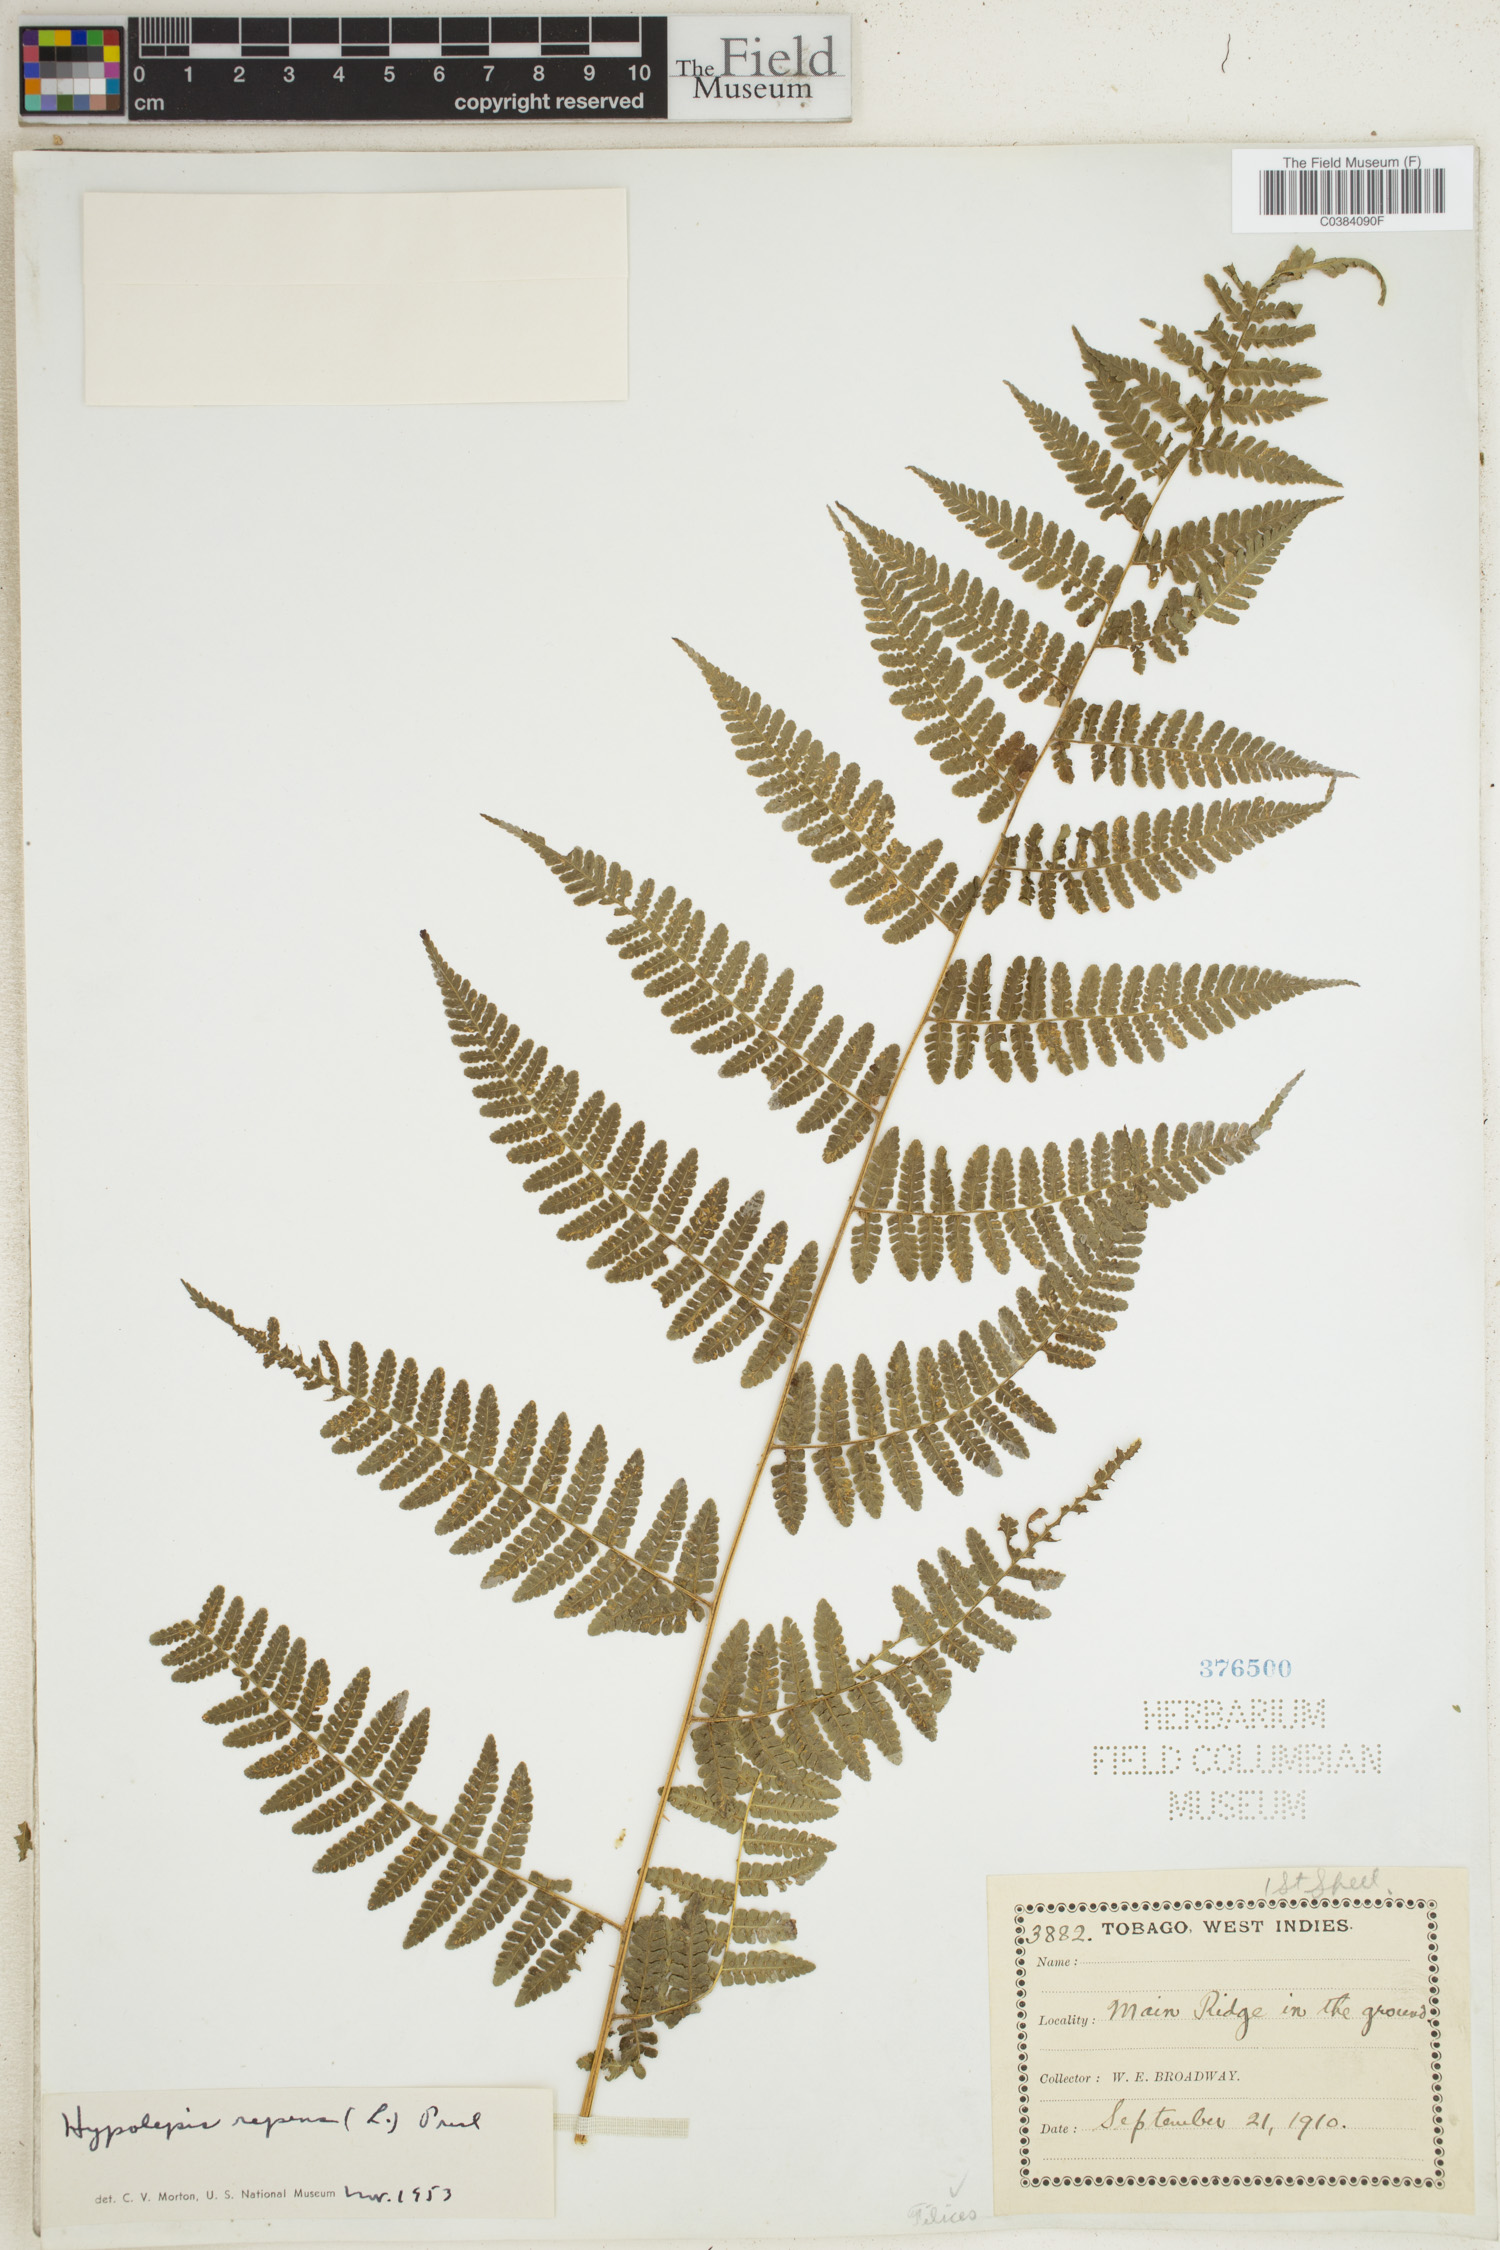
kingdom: Plantae
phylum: Tracheophyta
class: Polypodiopsida
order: Polypodiales
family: Dennstaedtiaceae
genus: Hypolepis
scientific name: Hypolepis repens
